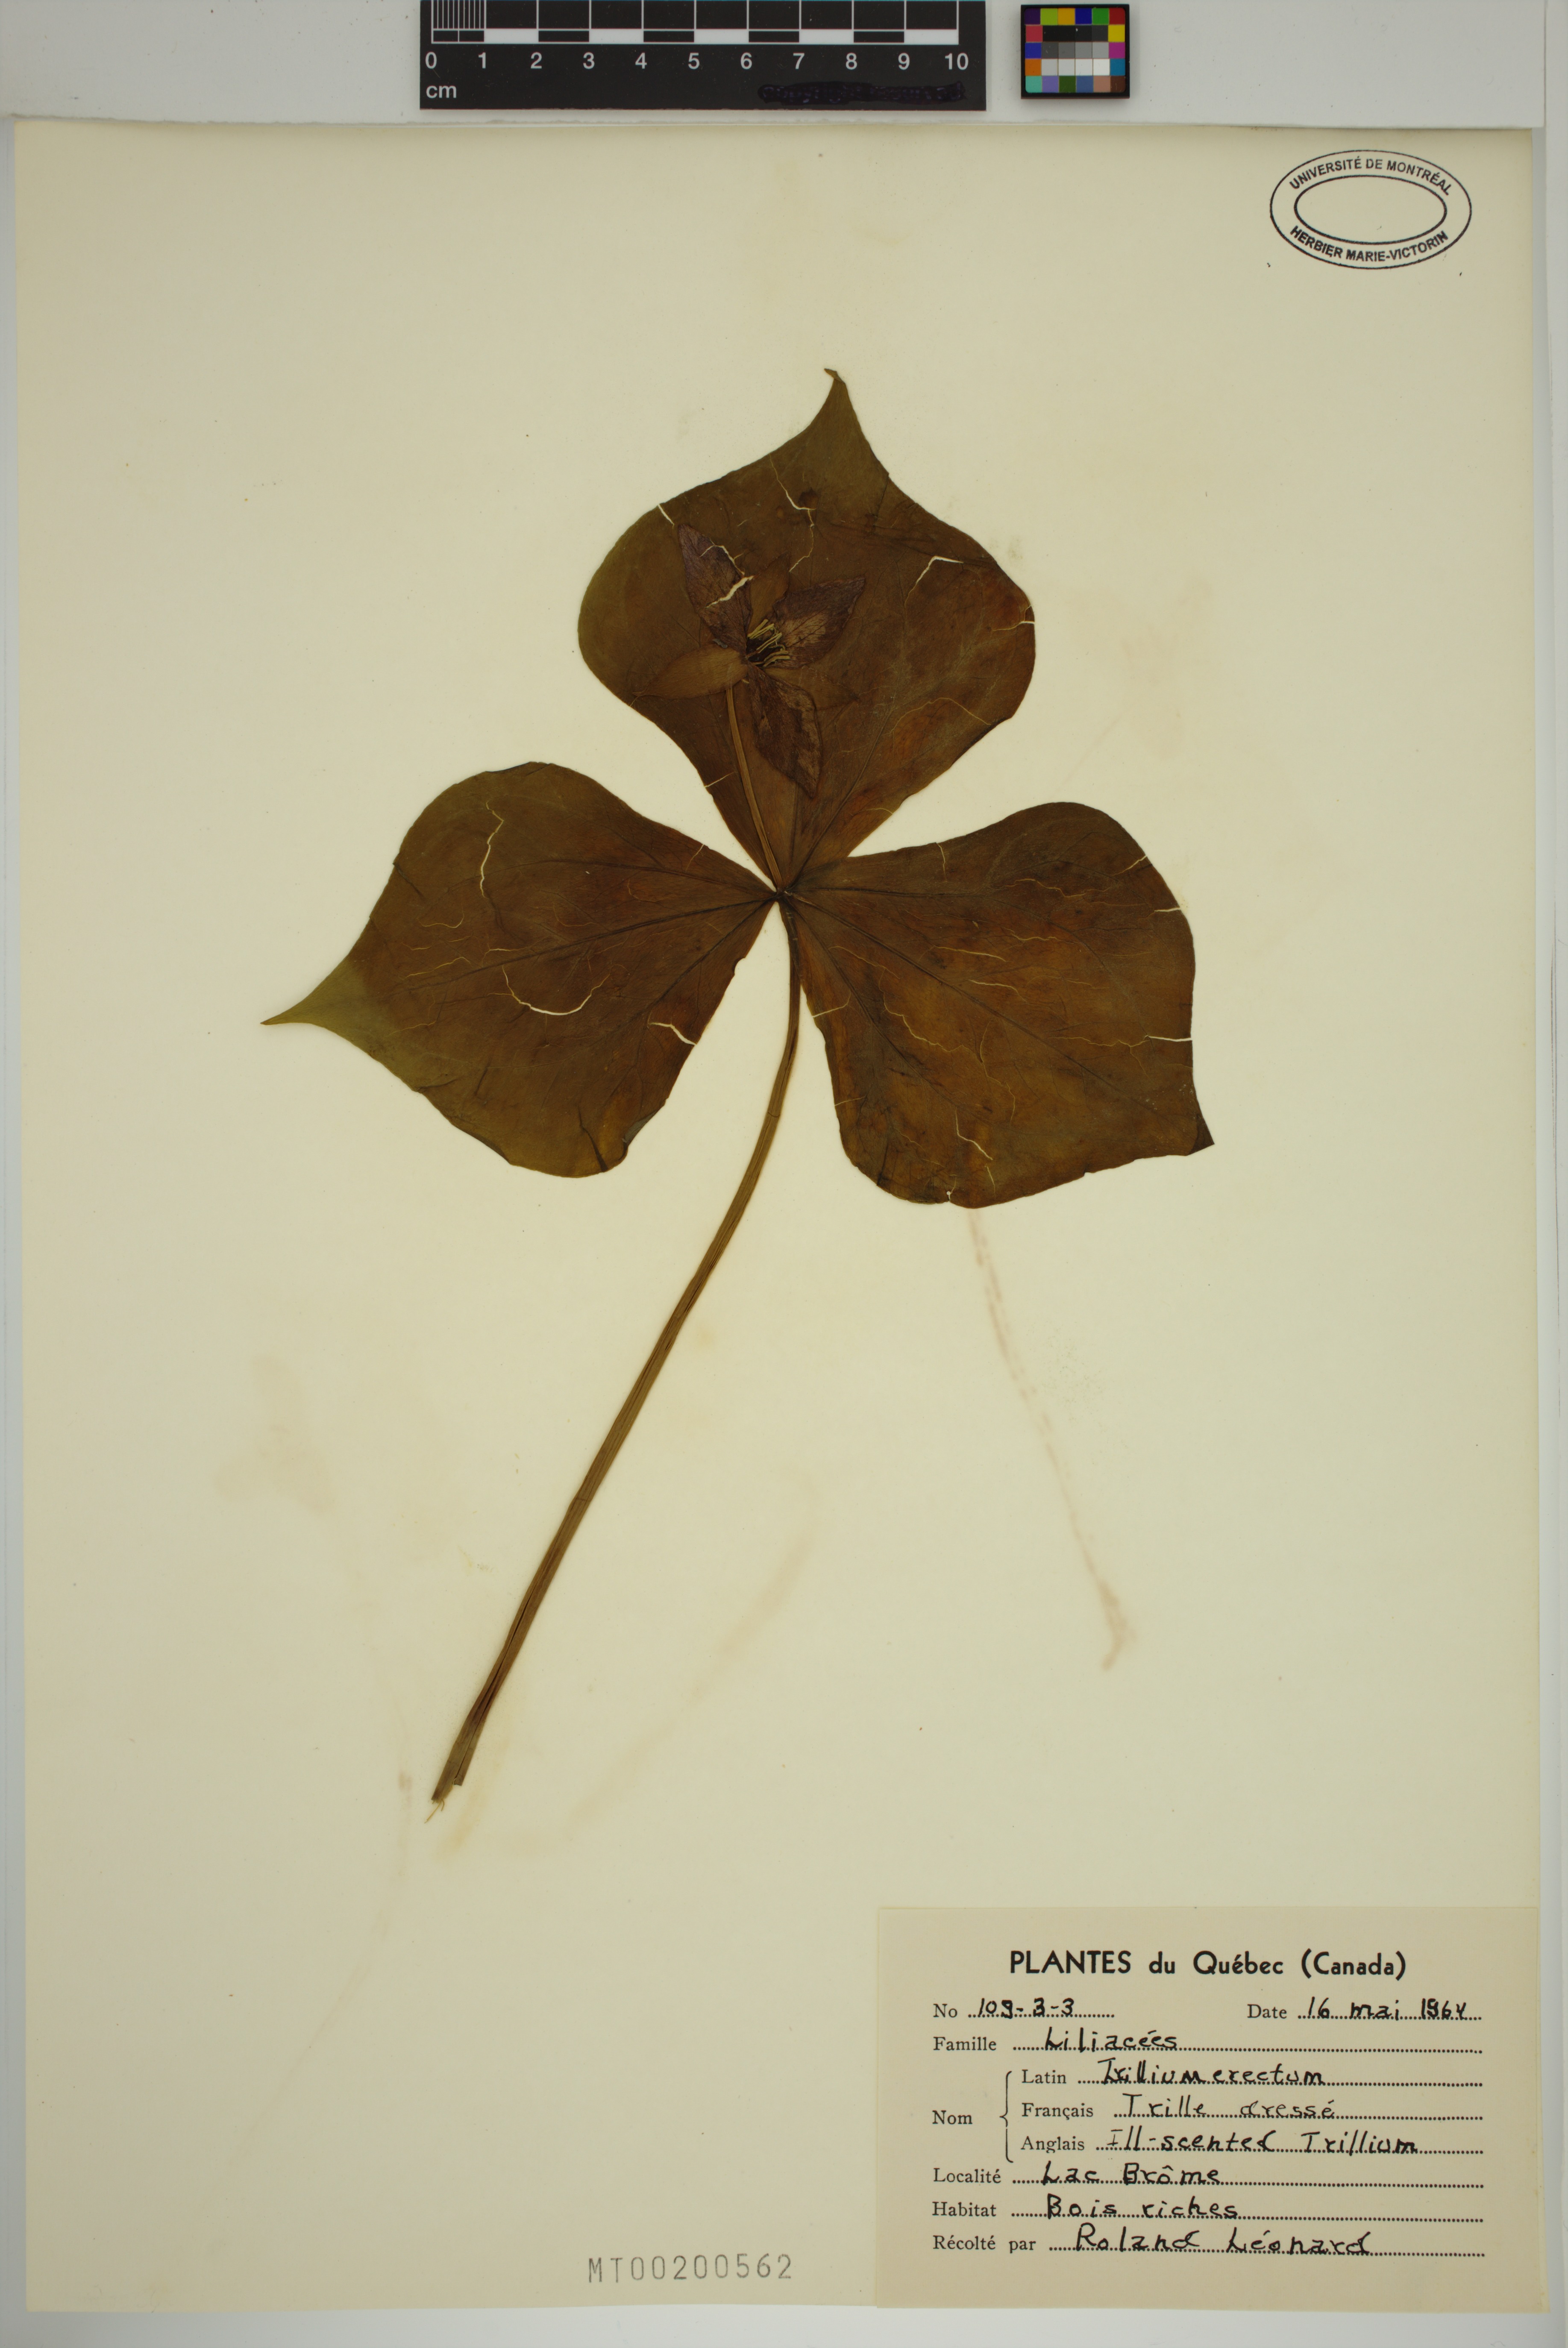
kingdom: Plantae
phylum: Tracheophyta
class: Liliopsida
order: Liliales
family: Melanthiaceae
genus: Trillium
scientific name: Trillium erectum
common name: Purple trillium
